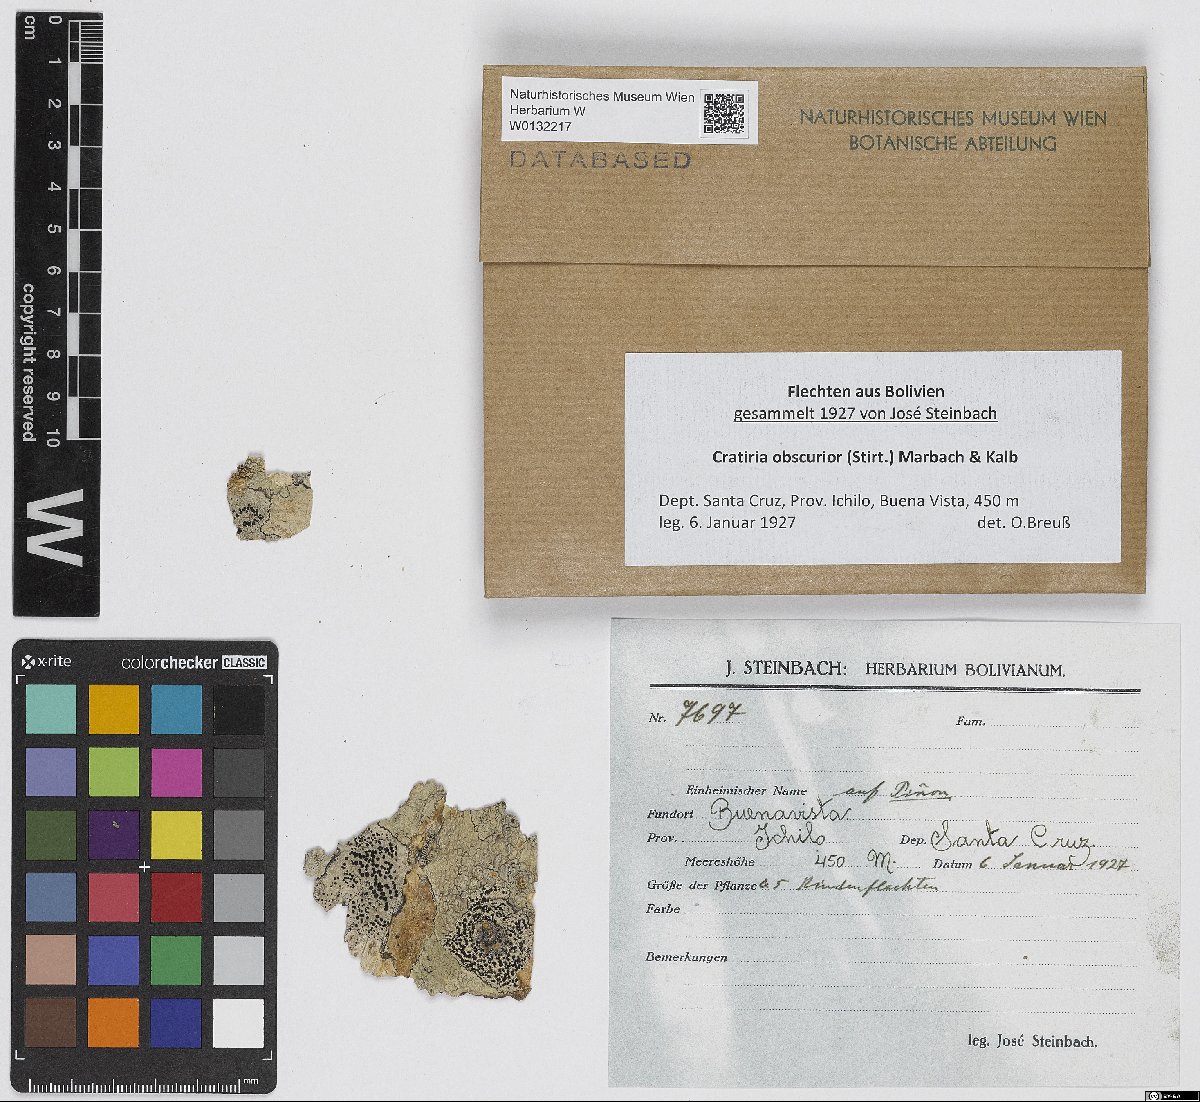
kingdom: Fungi
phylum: Ascomycota
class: Lecanoromycetes
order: Caliciales
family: Caliciaceae
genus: Cratiria
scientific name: Cratiria obscurior
